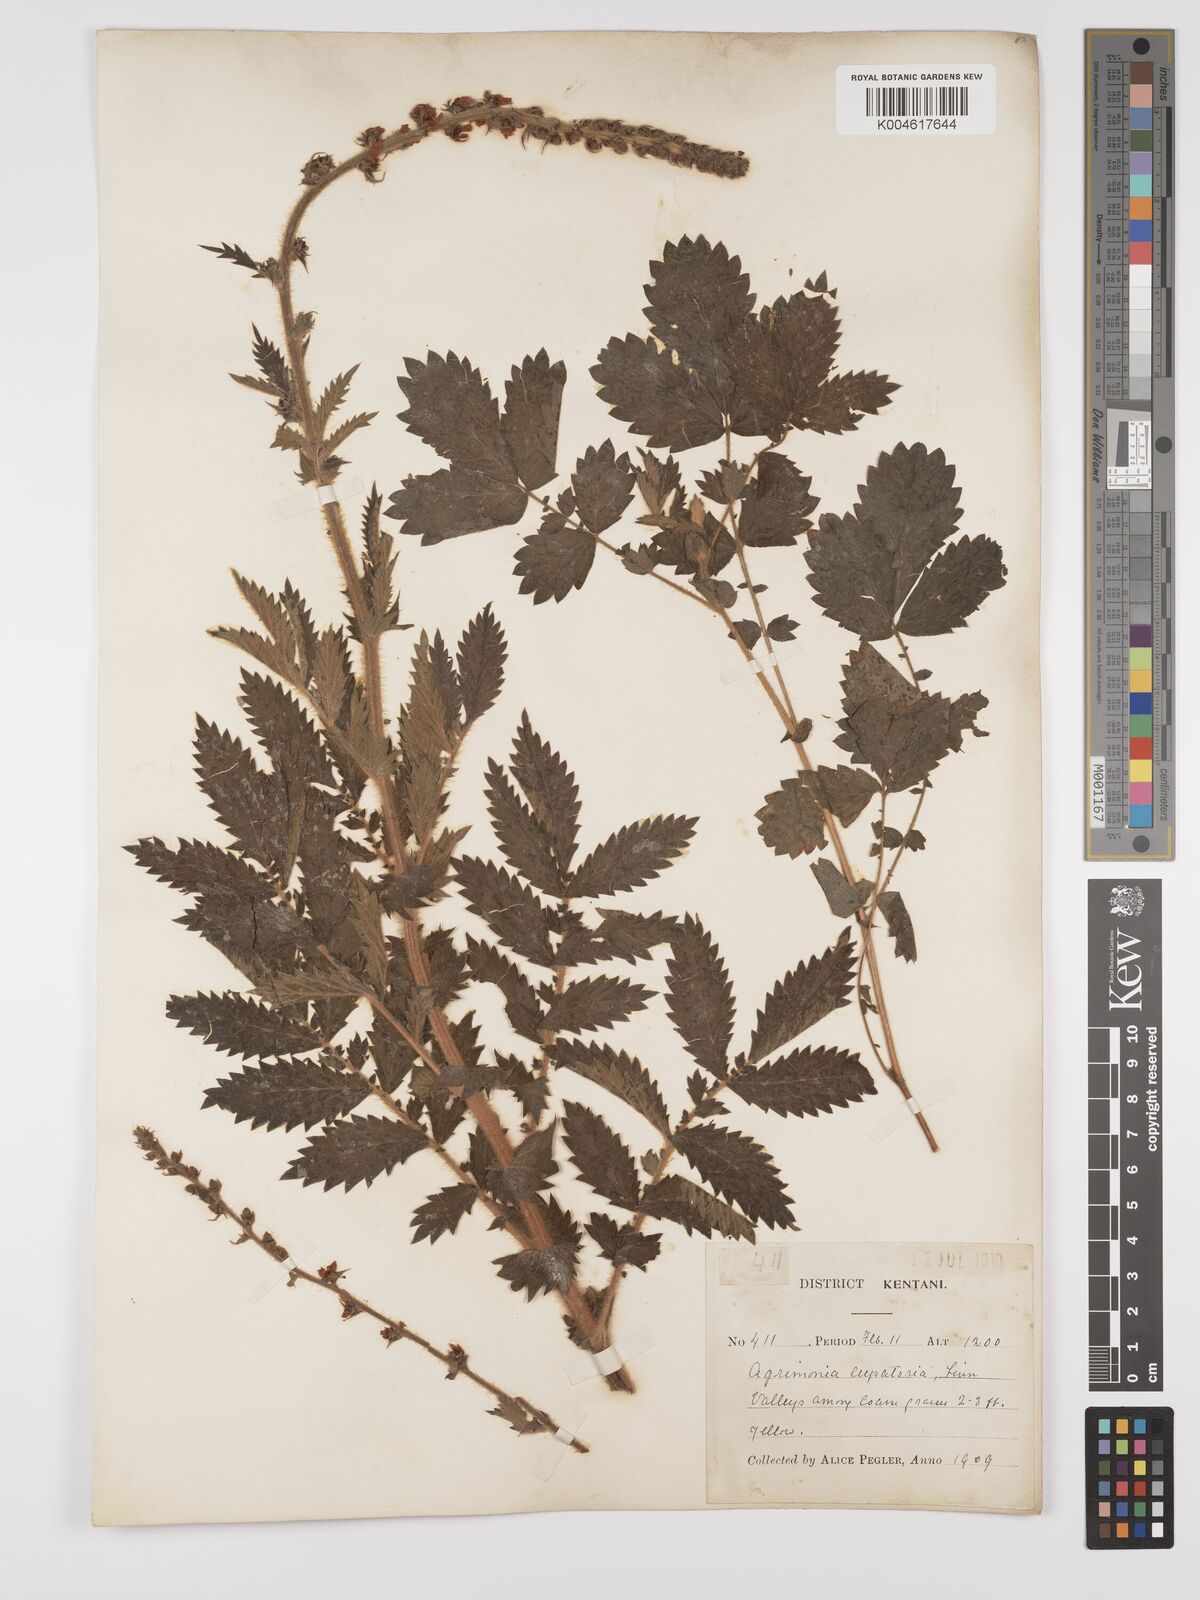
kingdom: Plantae
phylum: Tracheophyta
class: Magnoliopsida
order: Rosales
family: Rosaceae
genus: Agrimonia
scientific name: Agrimonia eupatoria
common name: Agrimony
